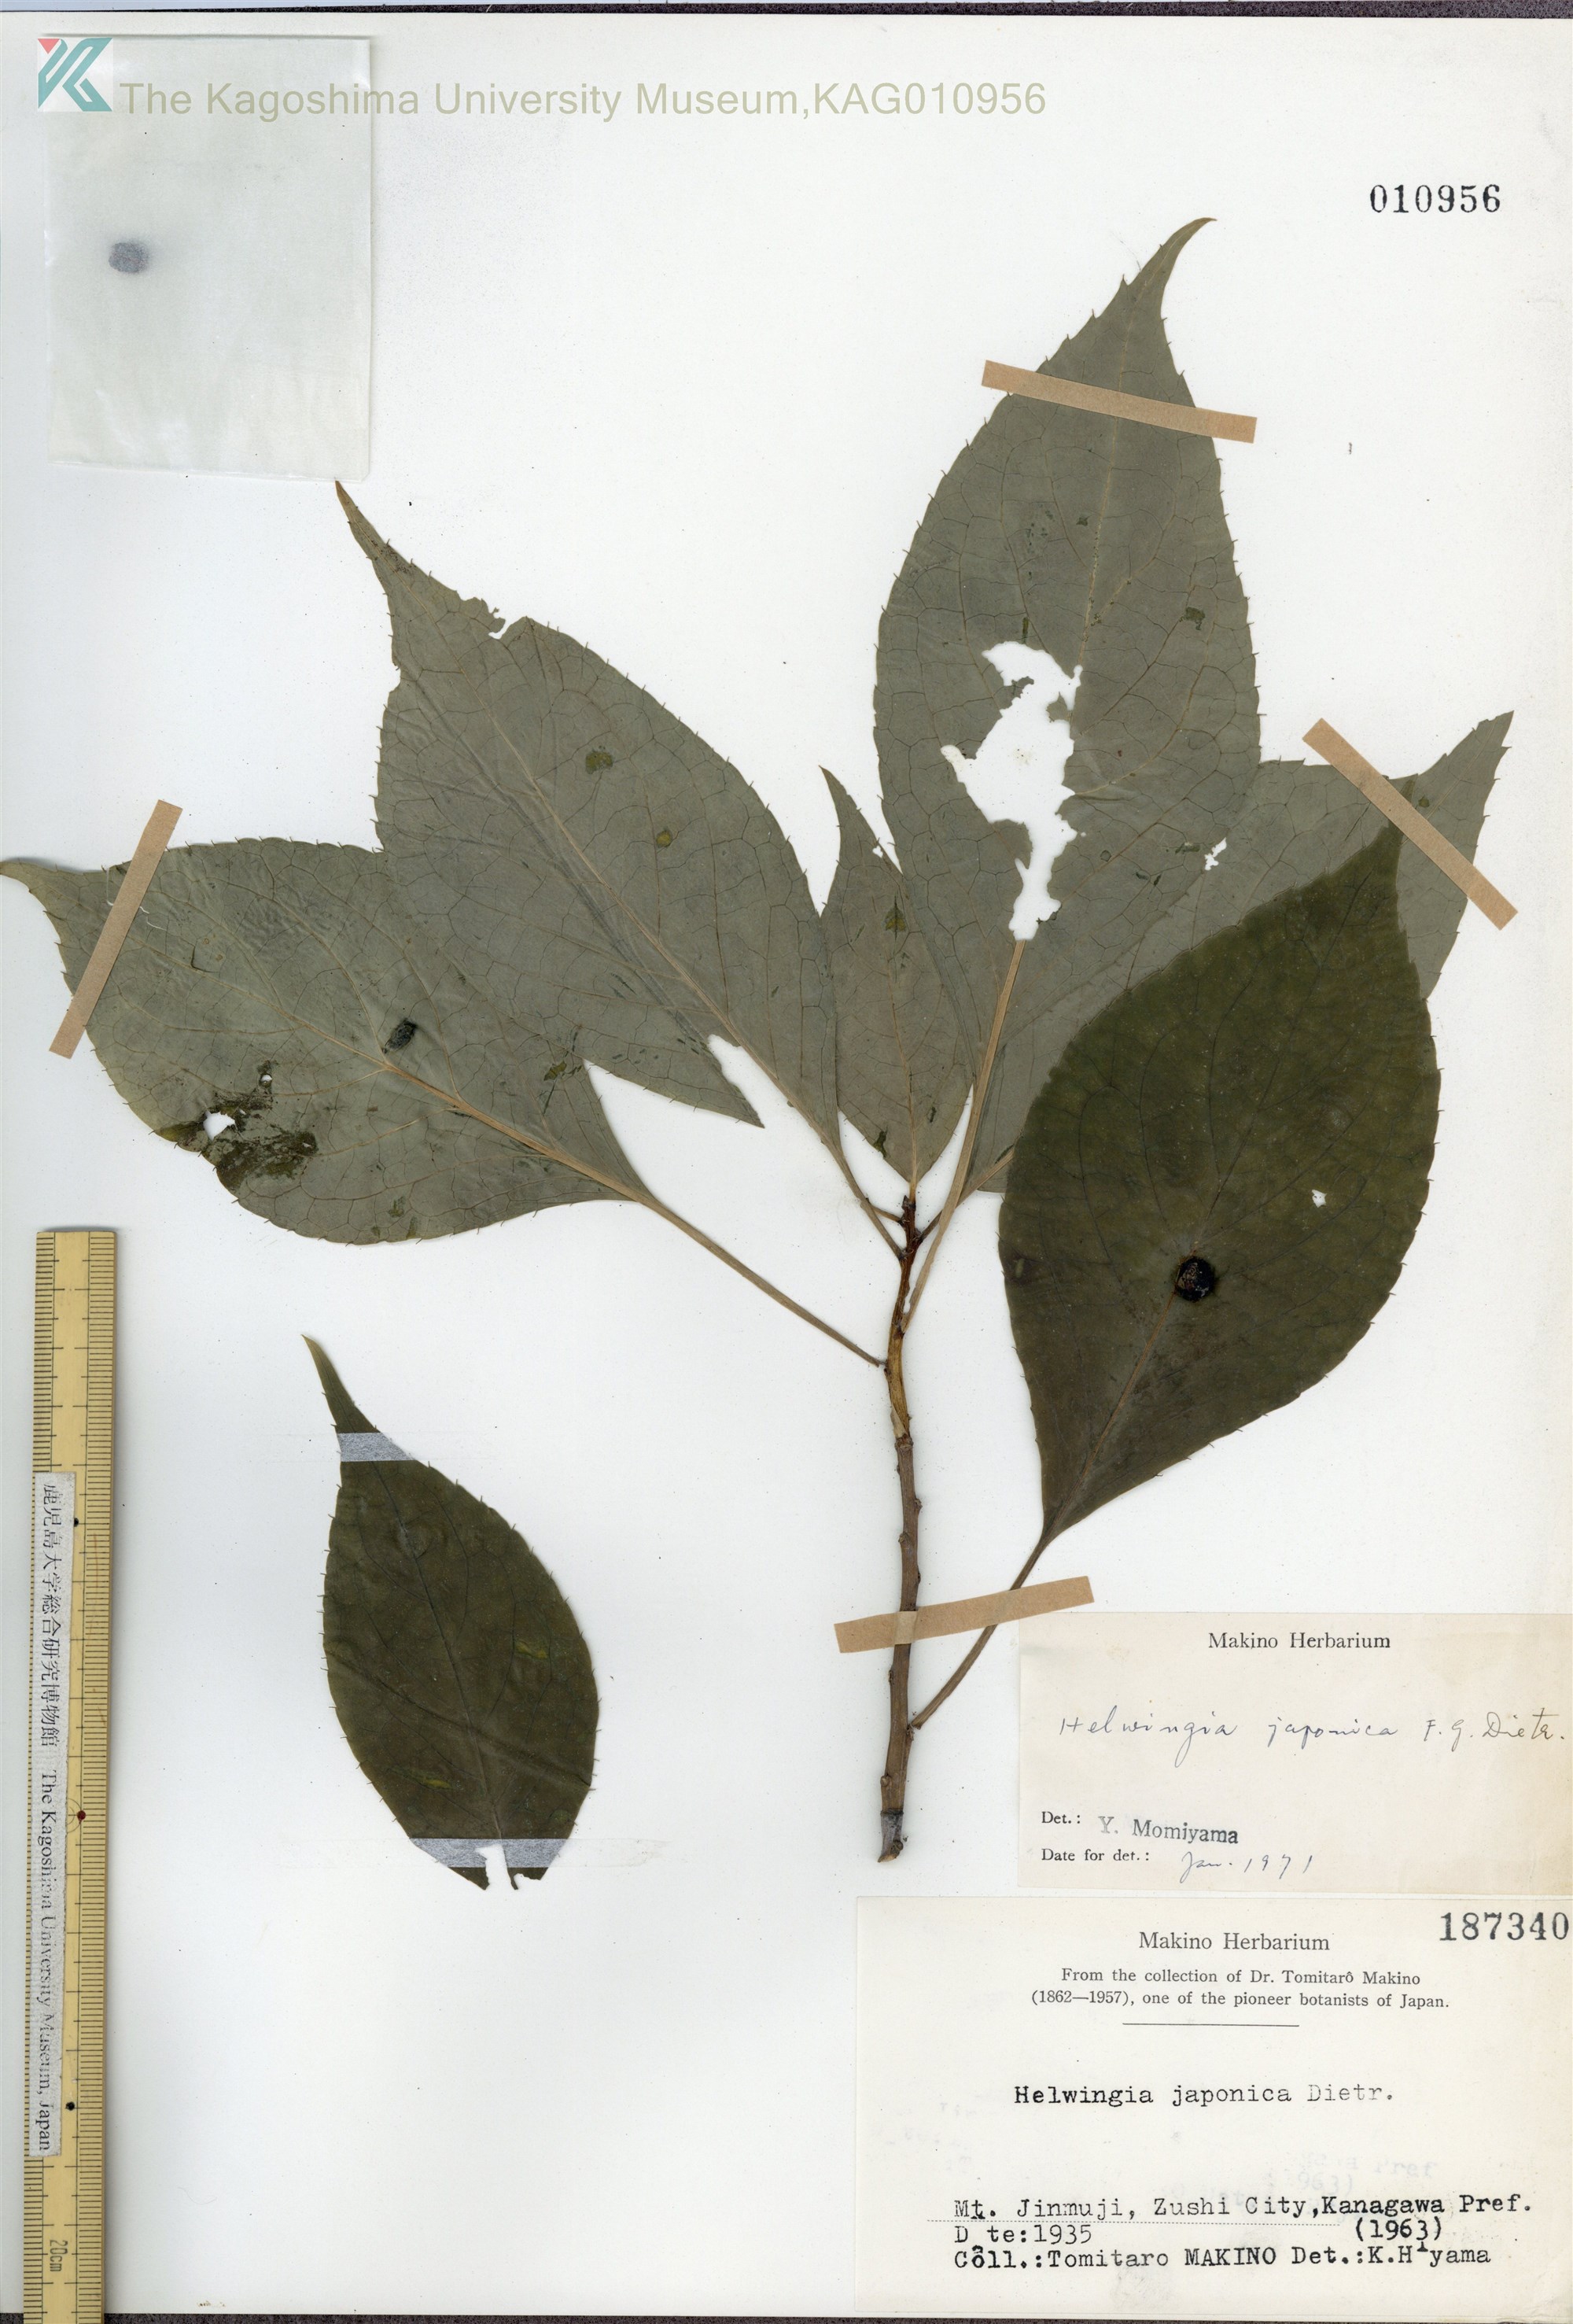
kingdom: Plantae
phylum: Tracheophyta
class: Magnoliopsida
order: Aquifoliales
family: Helwingiaceae
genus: Helwingia
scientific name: Helwingia japonica
